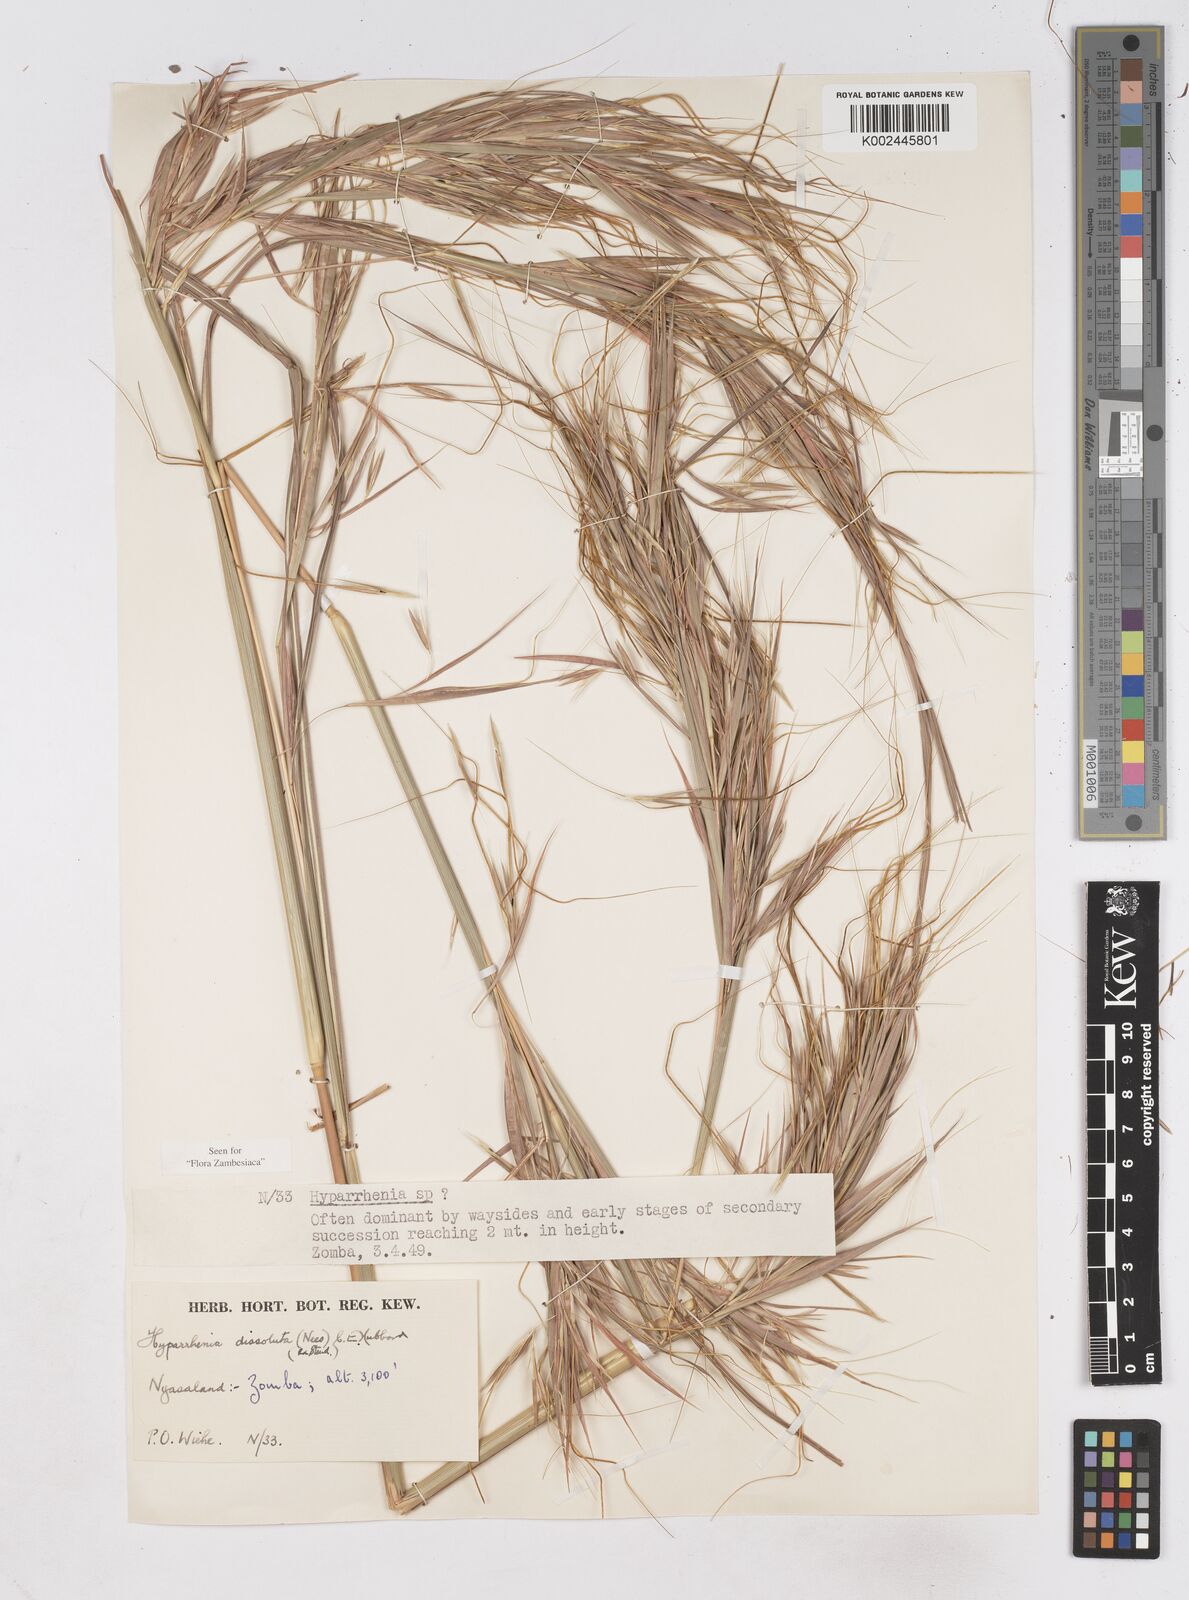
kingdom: Plantae
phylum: Tracheophyta
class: Liliopsida
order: Poales
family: Poaceae
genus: Hyperthelia
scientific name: Hyperthelia dissoluta
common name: Yellow thatching grass
